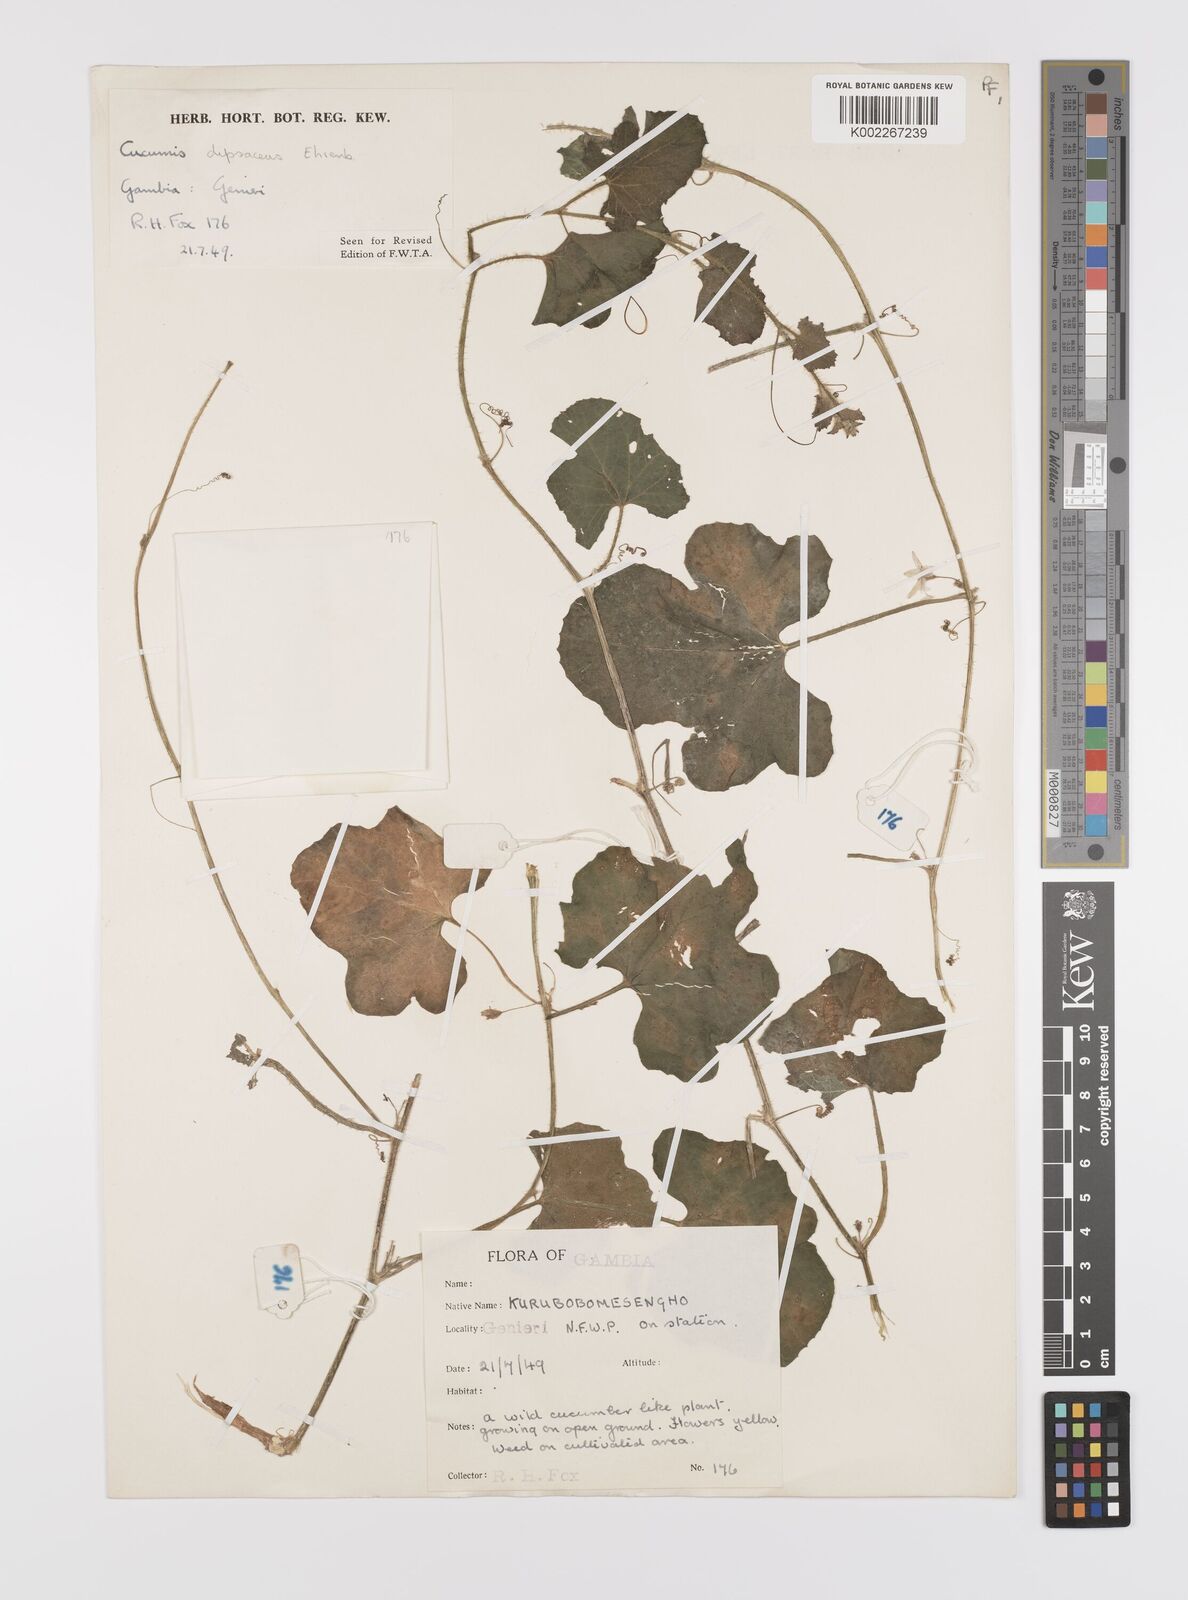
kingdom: Plantae
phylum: Tracheophyta
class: Magnoliopsida
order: Cucurbitales
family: Cucurbitaceae
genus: Cucumis
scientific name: Cucumis melo
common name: Melon
